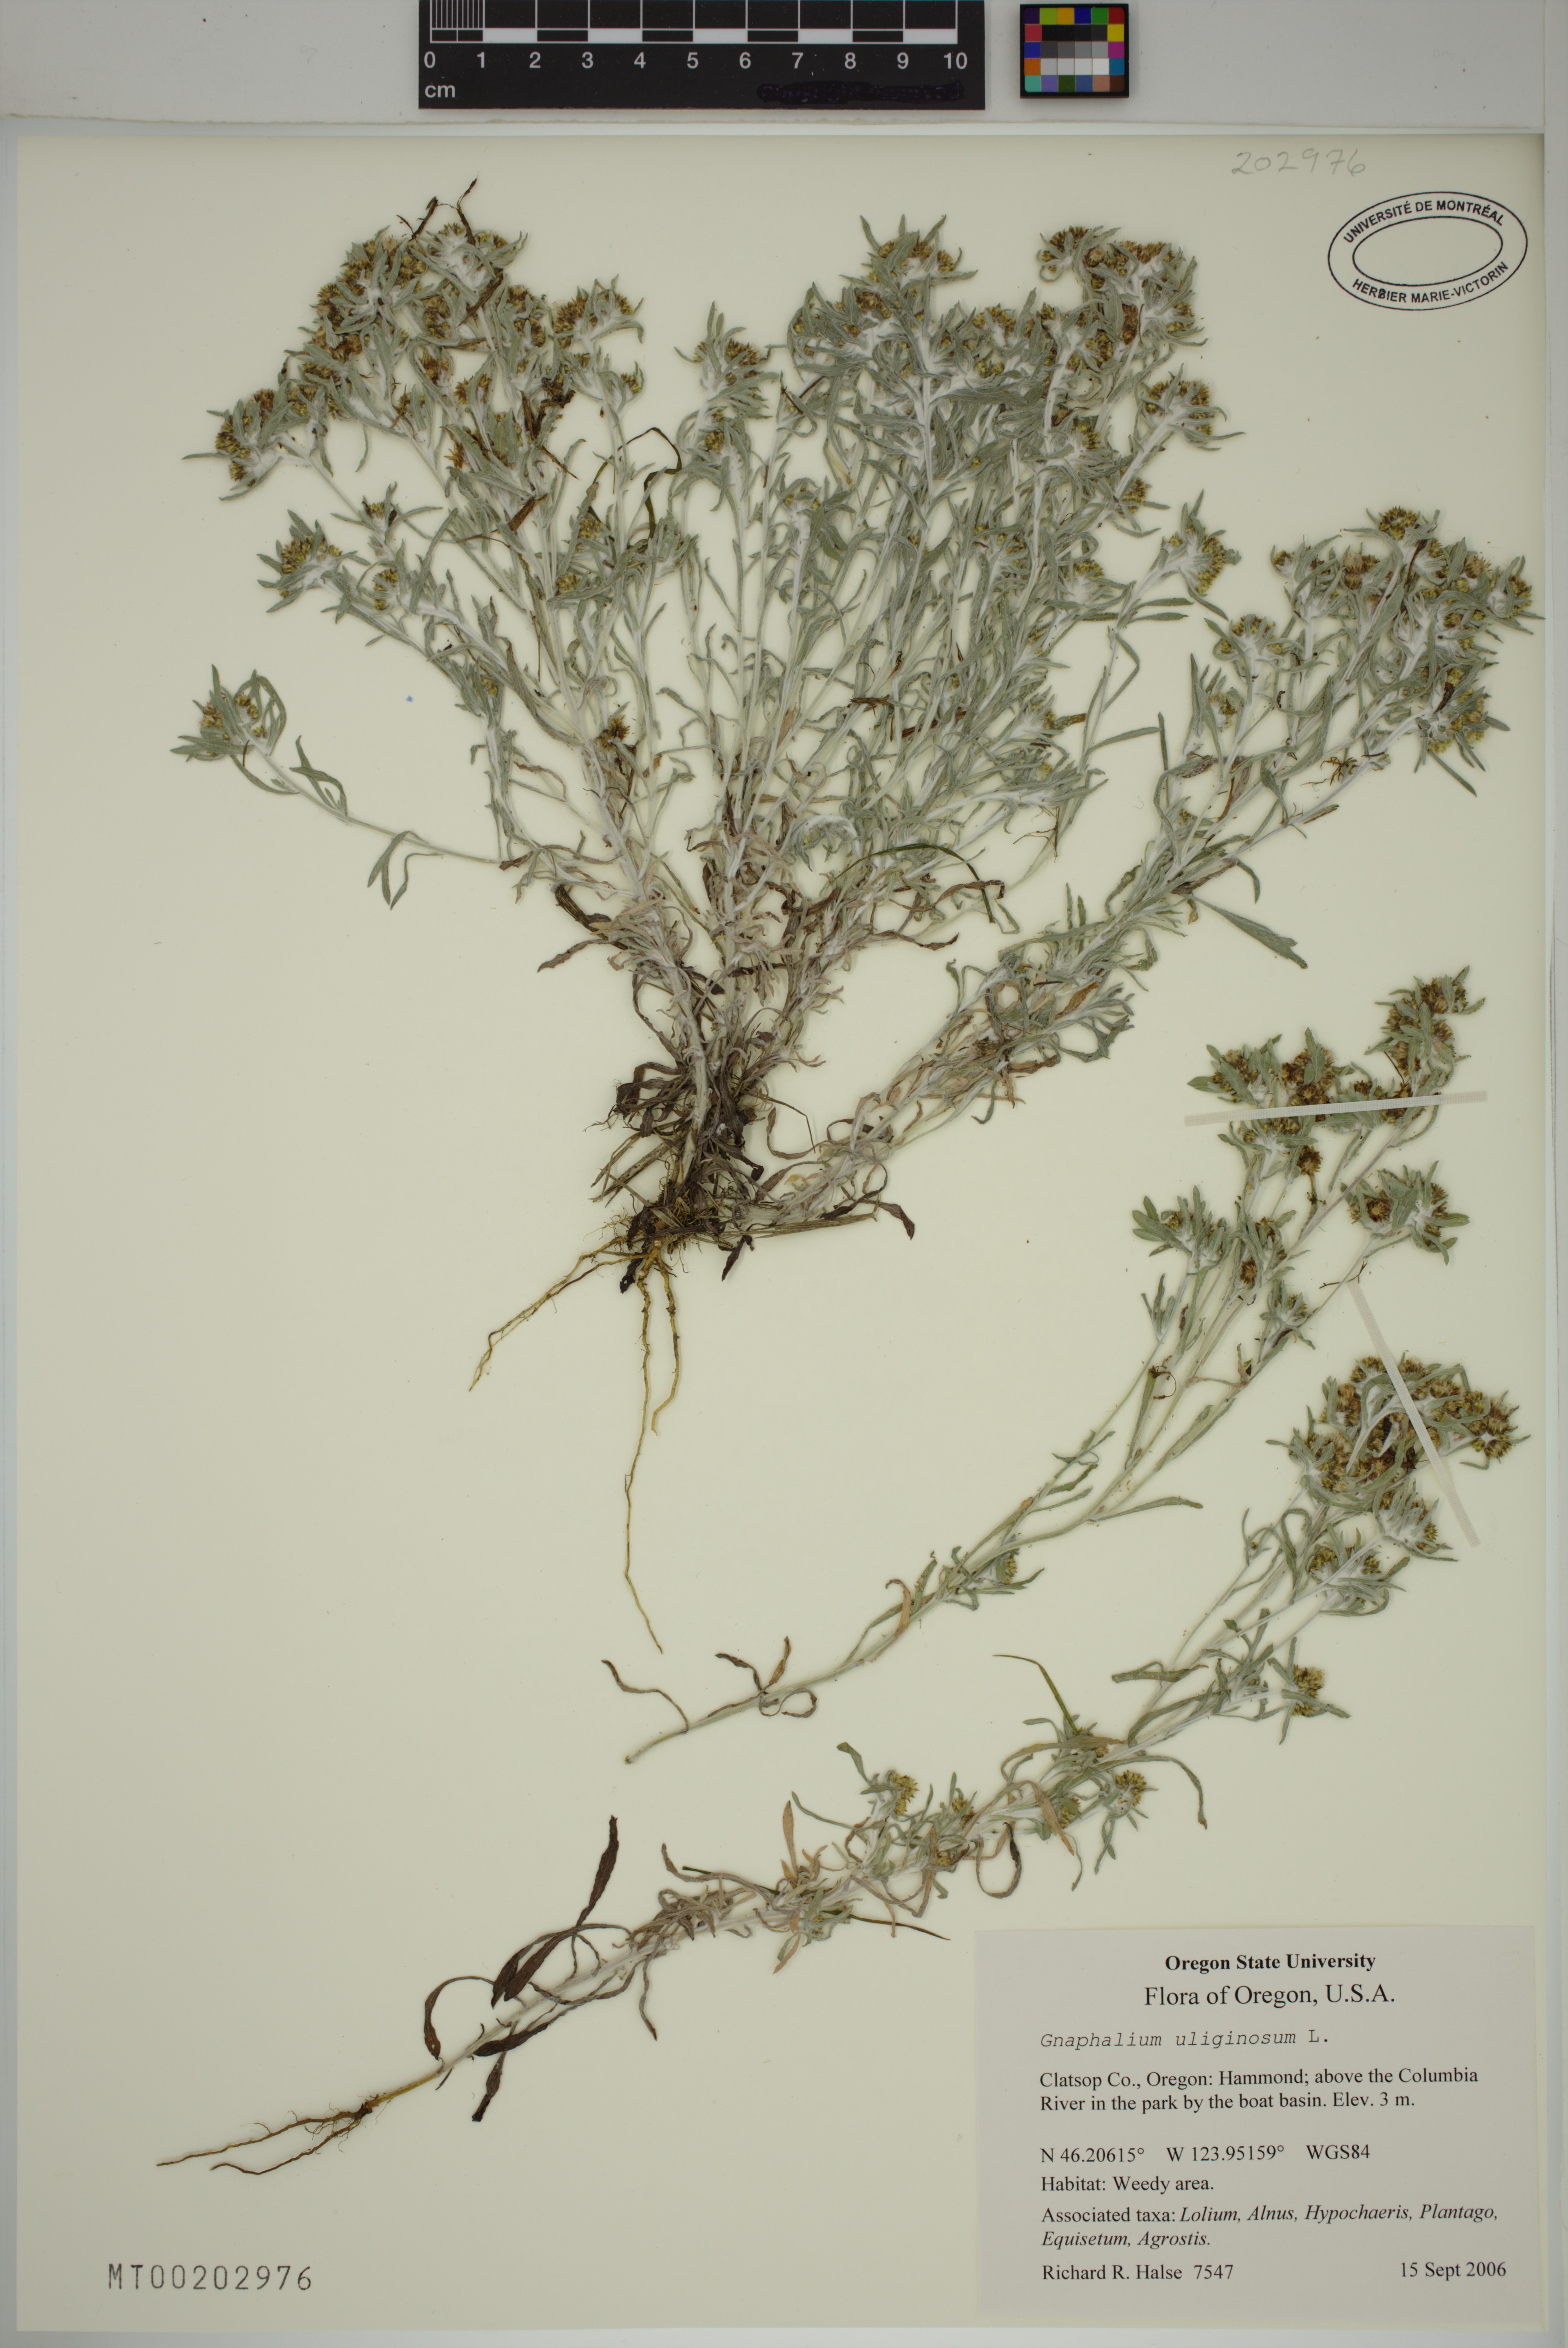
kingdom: Plantae
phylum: Tracheophyta
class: Magnoliopsida
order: Asterales
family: Asteraceae
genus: Gnaphalium
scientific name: Gnaphalium uliginosum
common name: Marsh cudweed
